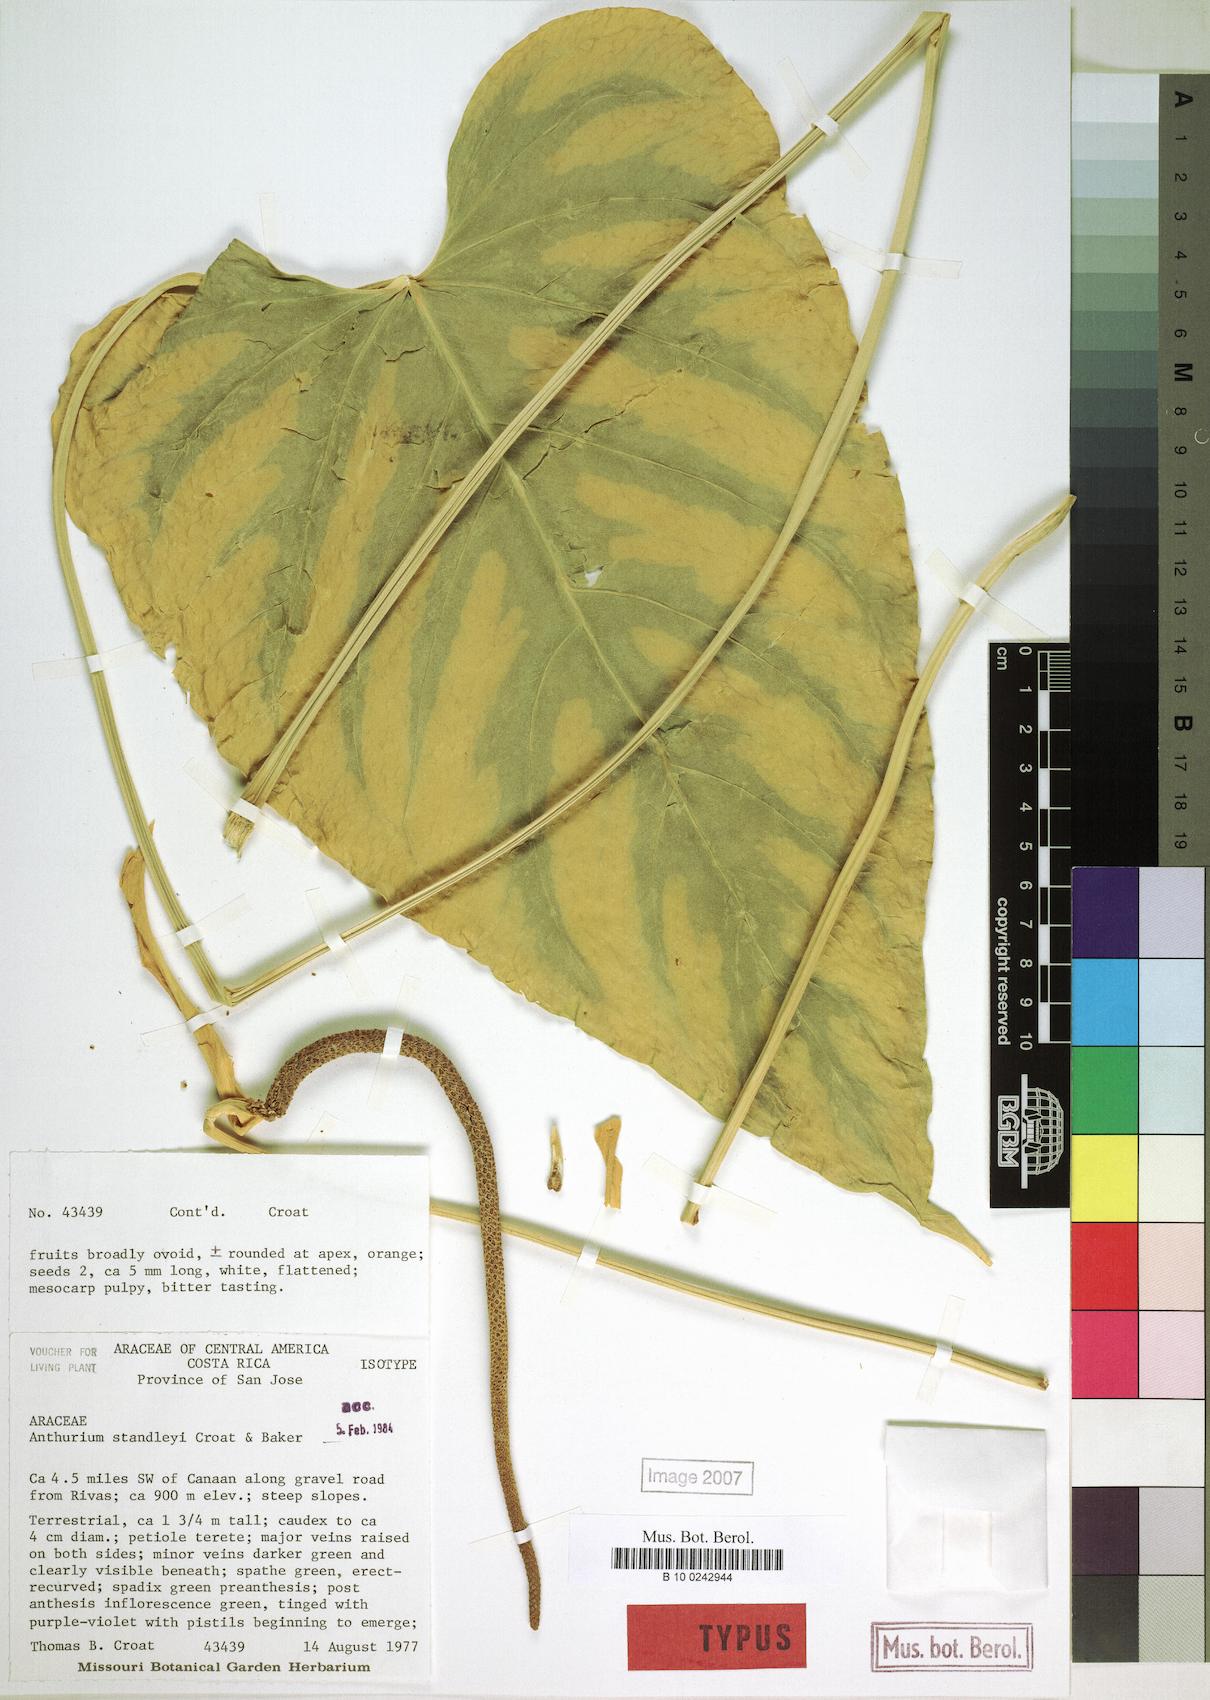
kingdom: Plantae
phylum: Tracheophyta
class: Liliopsida
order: Alismatales
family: Araceae
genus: Anthurium
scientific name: Anthurium standleyi
